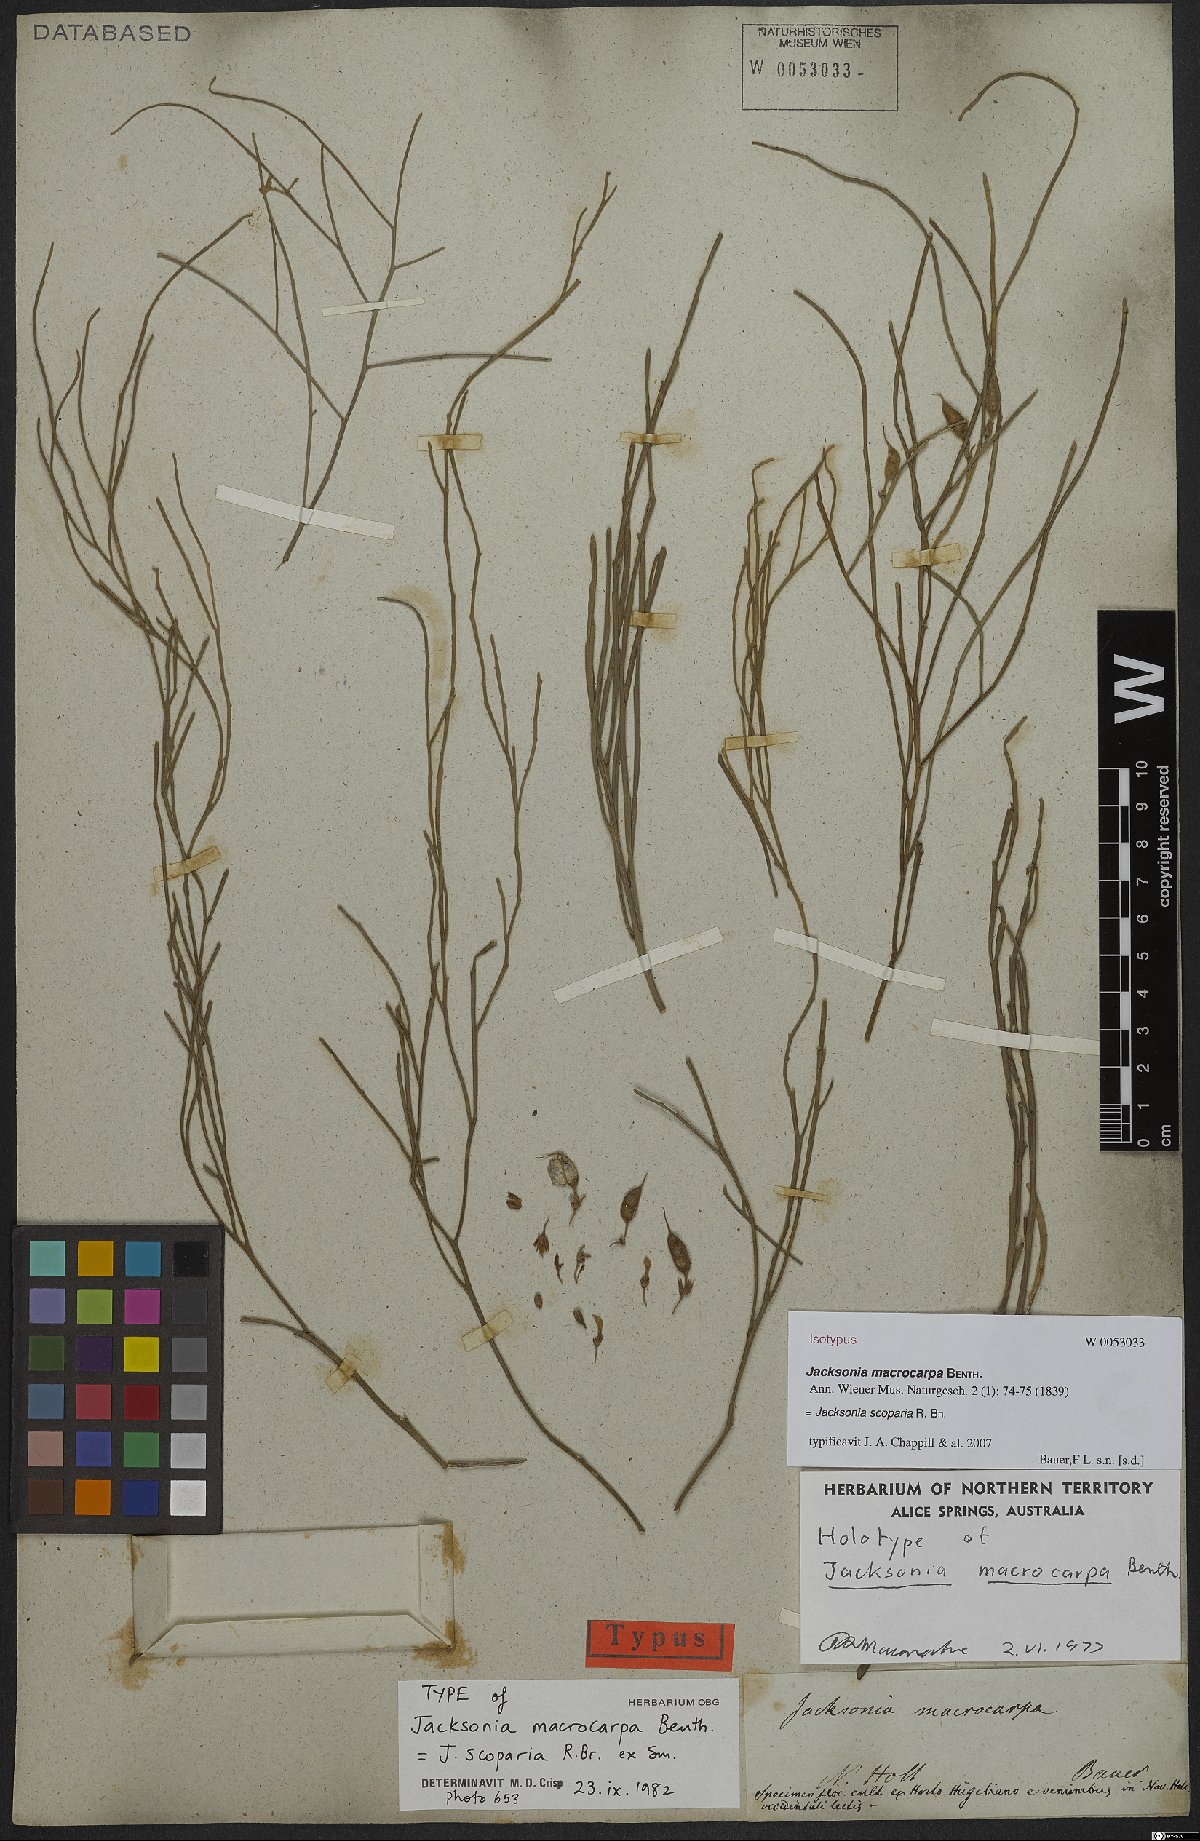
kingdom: Plantae
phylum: Tracheophyta
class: Magnoliopsida
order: Fabales
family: Fabaceae
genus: Jacksonia
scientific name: Jacksonia scoparia
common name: Dogwood
